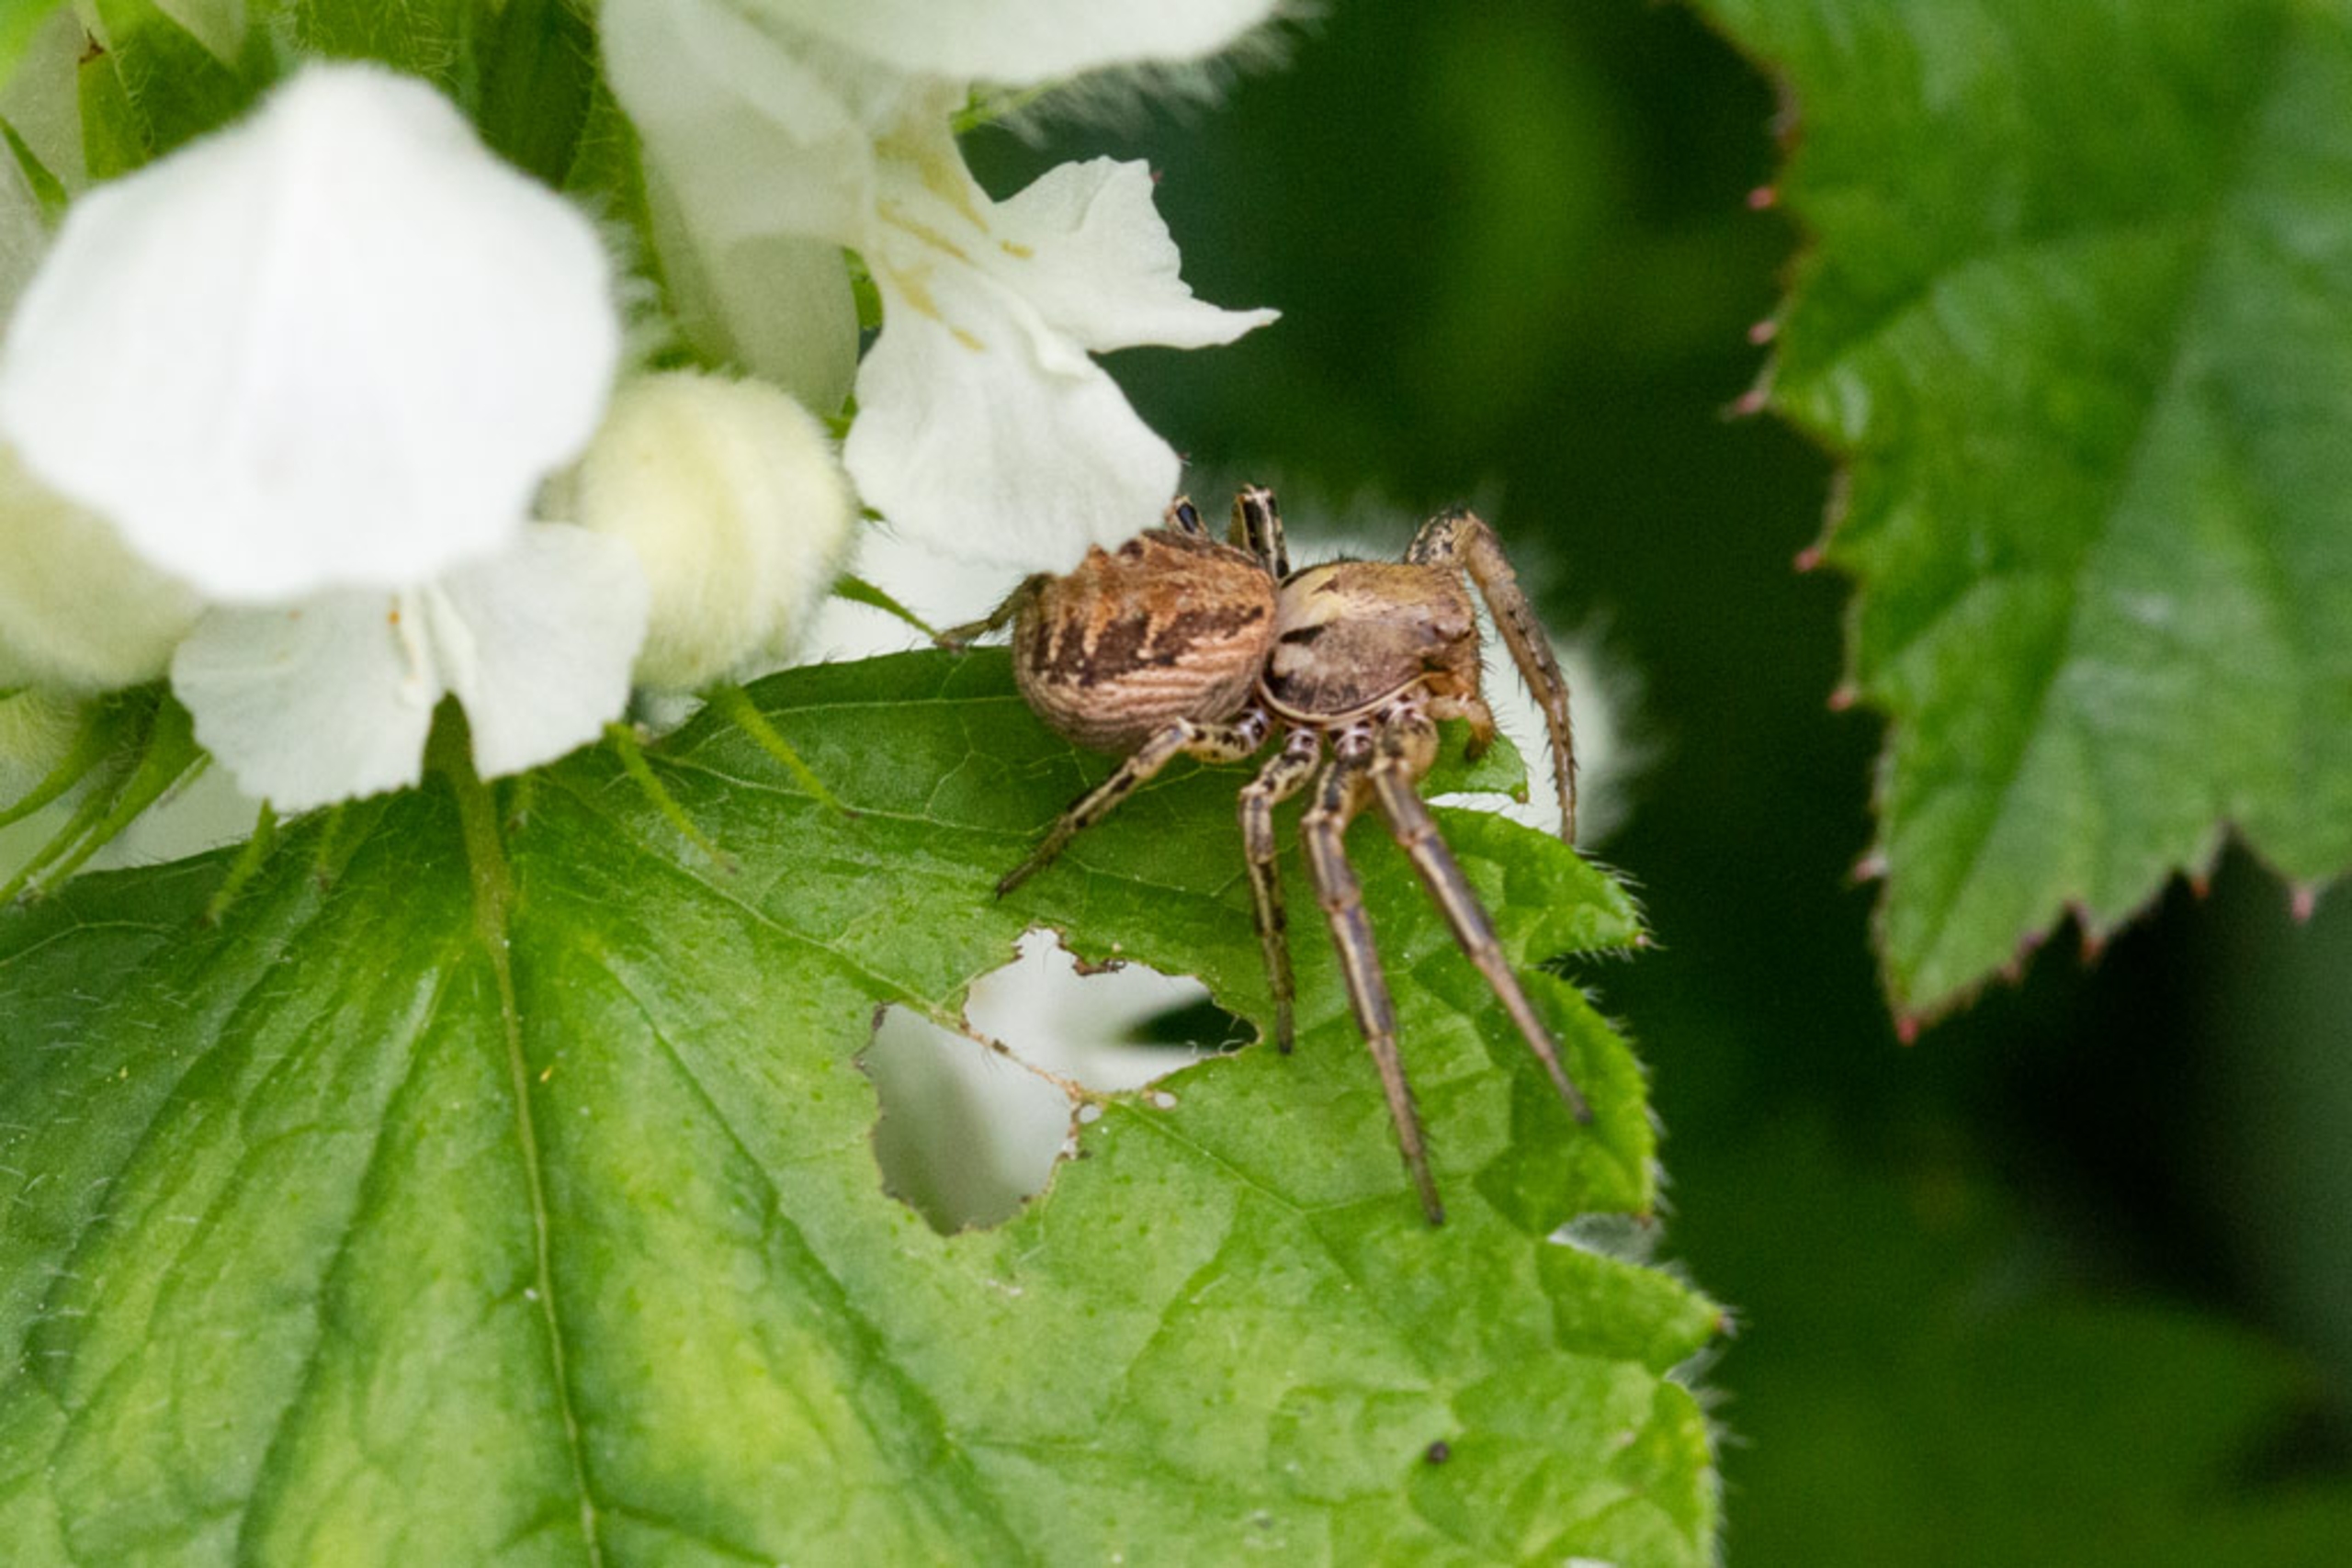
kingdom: Animalia
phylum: Arthropoda
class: Arachnida
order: Araneae
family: Thomisidae
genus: Xysticus
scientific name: Xysticus
